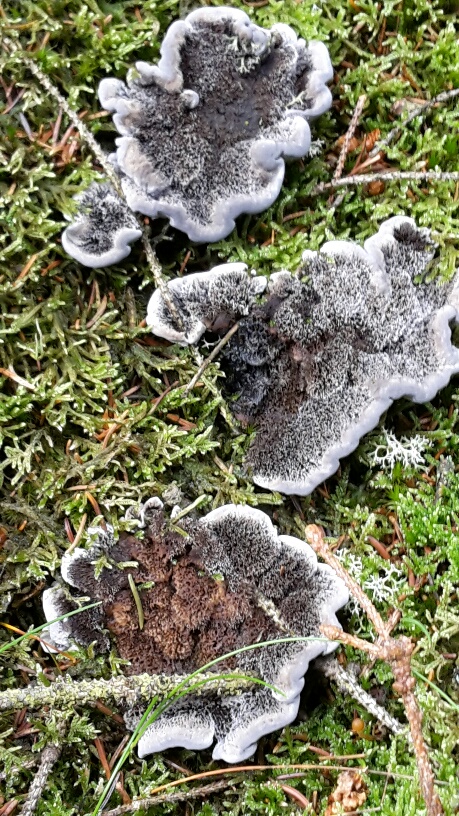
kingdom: Fungi
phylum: Basidiomycota
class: Agaricomycetes
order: Thelephorales
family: Thelephoraceae
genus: Phellodon
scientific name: Phellodon
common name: mørk duftpigsvamp
